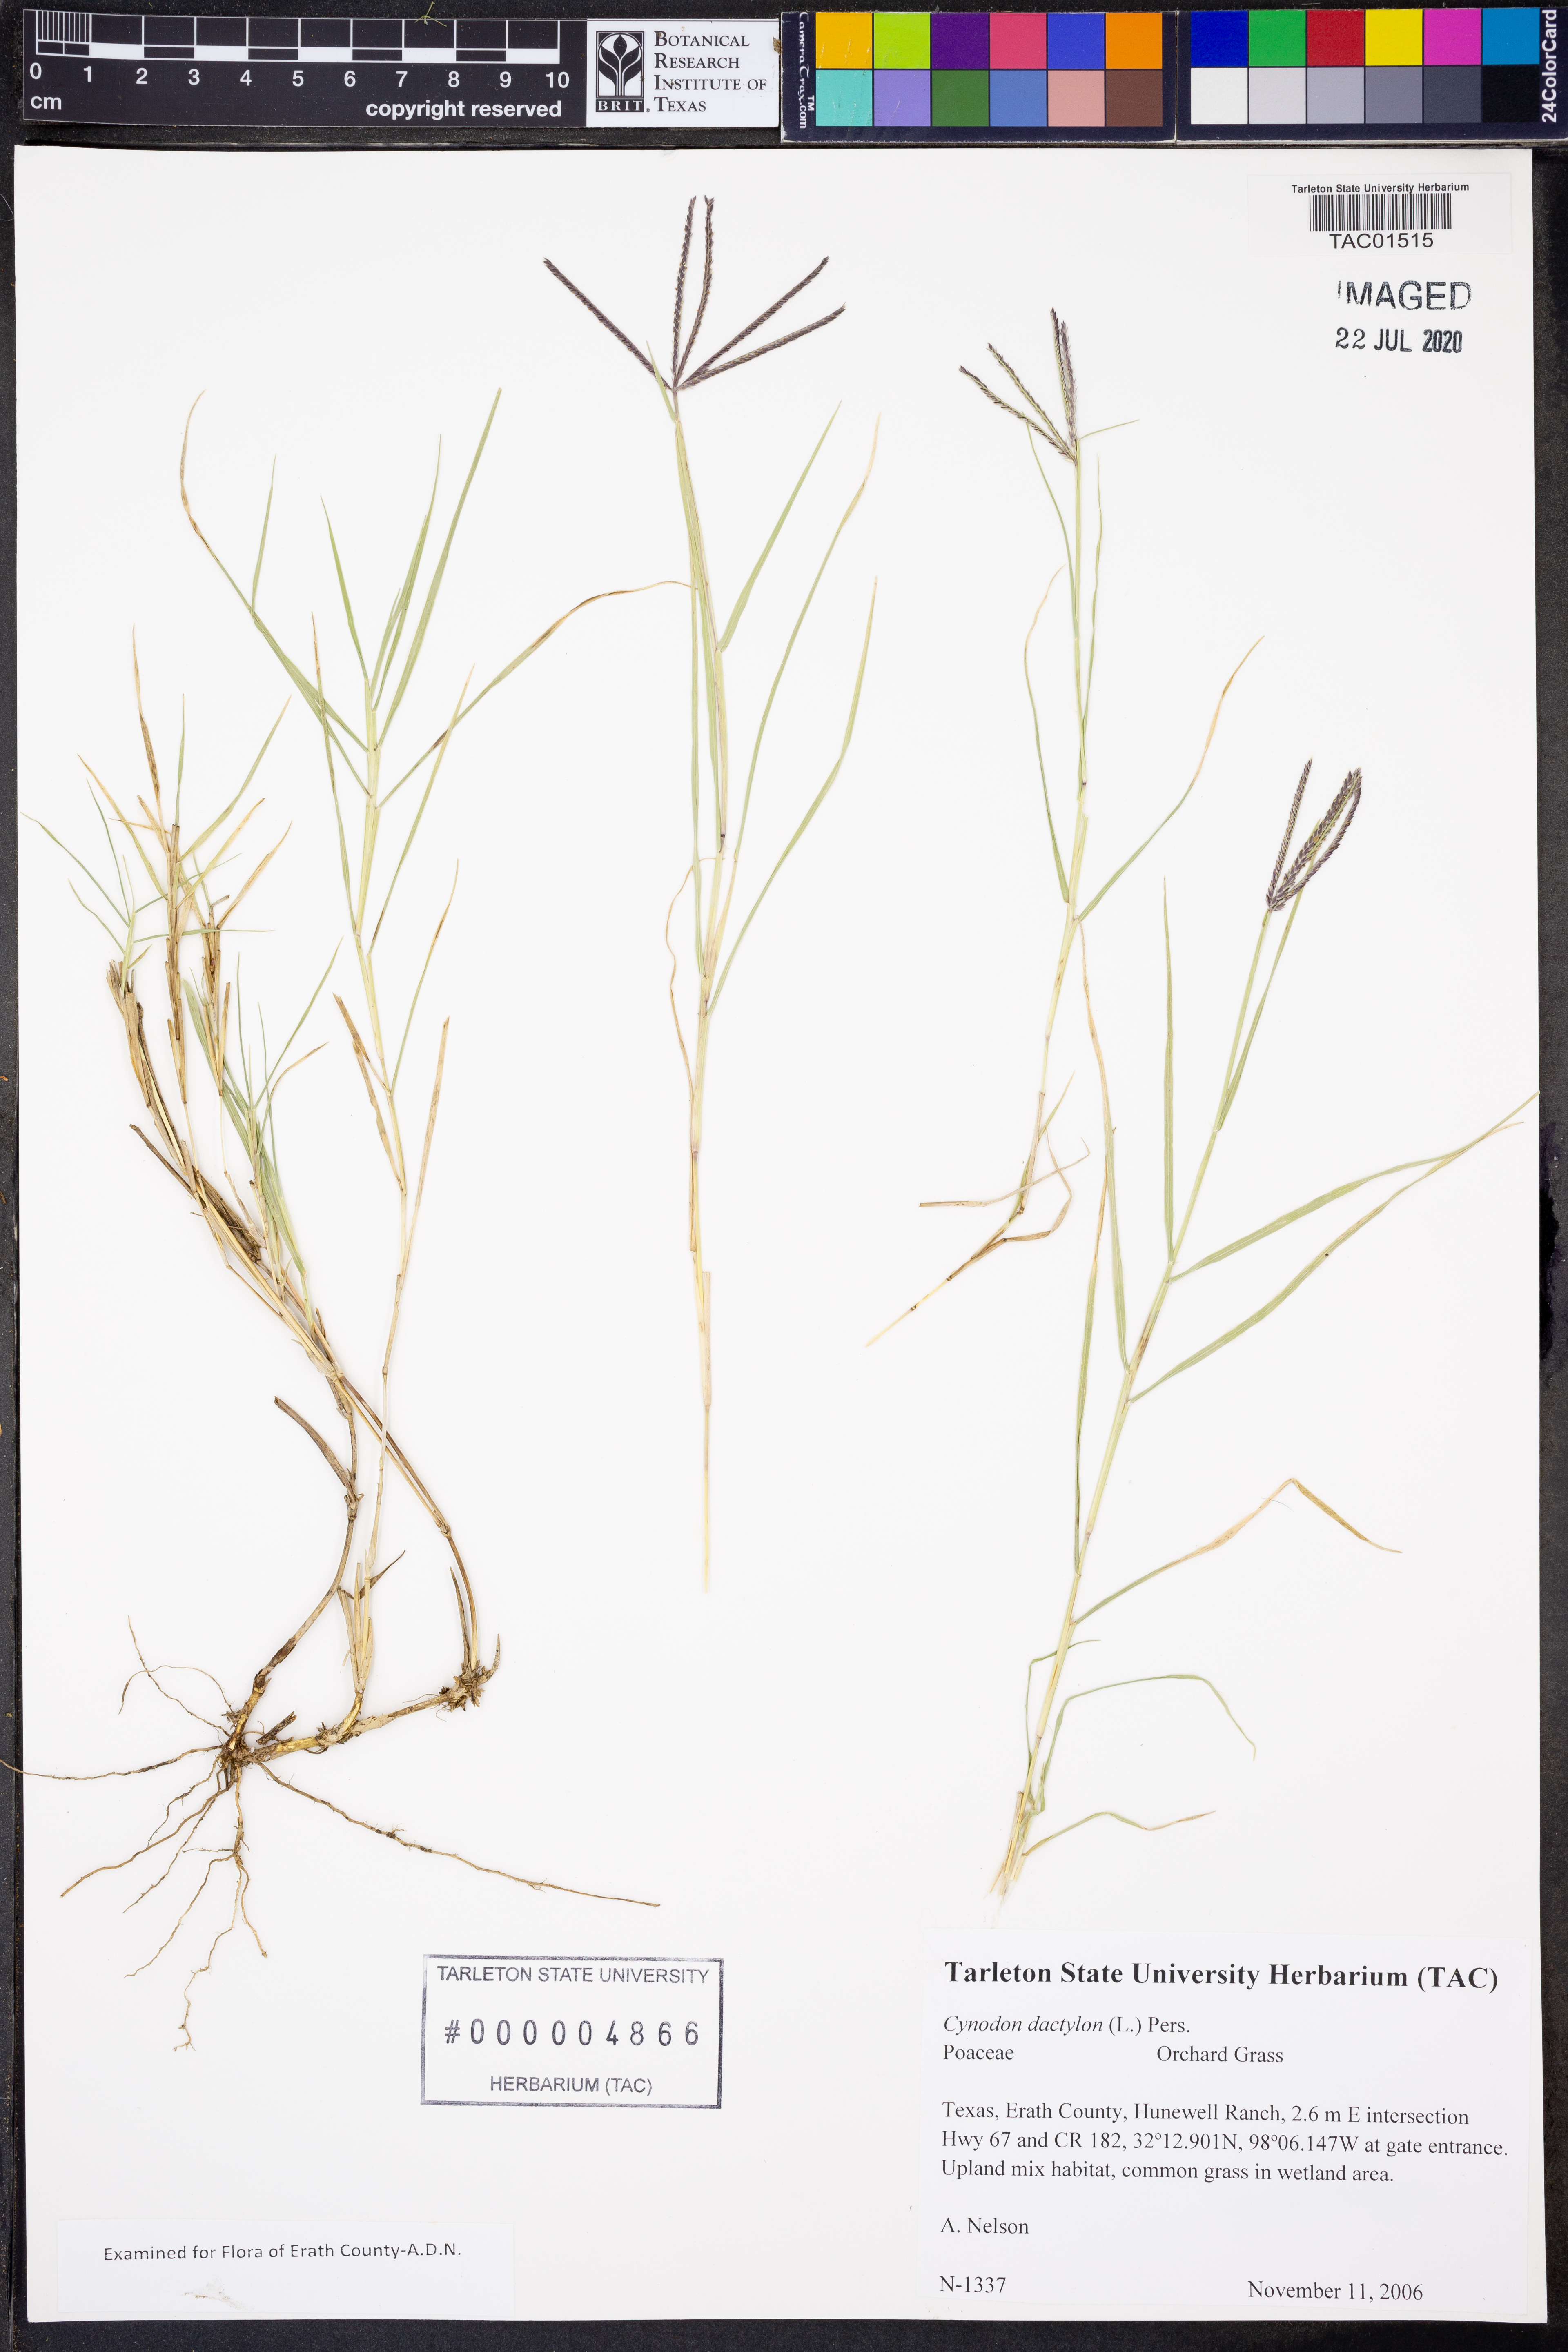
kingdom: Plantae
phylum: Tracheophyta
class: Liliopsida
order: Poales
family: Poaceae
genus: Cynodon
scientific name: Cynodon dactylon
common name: Bermuda grass
